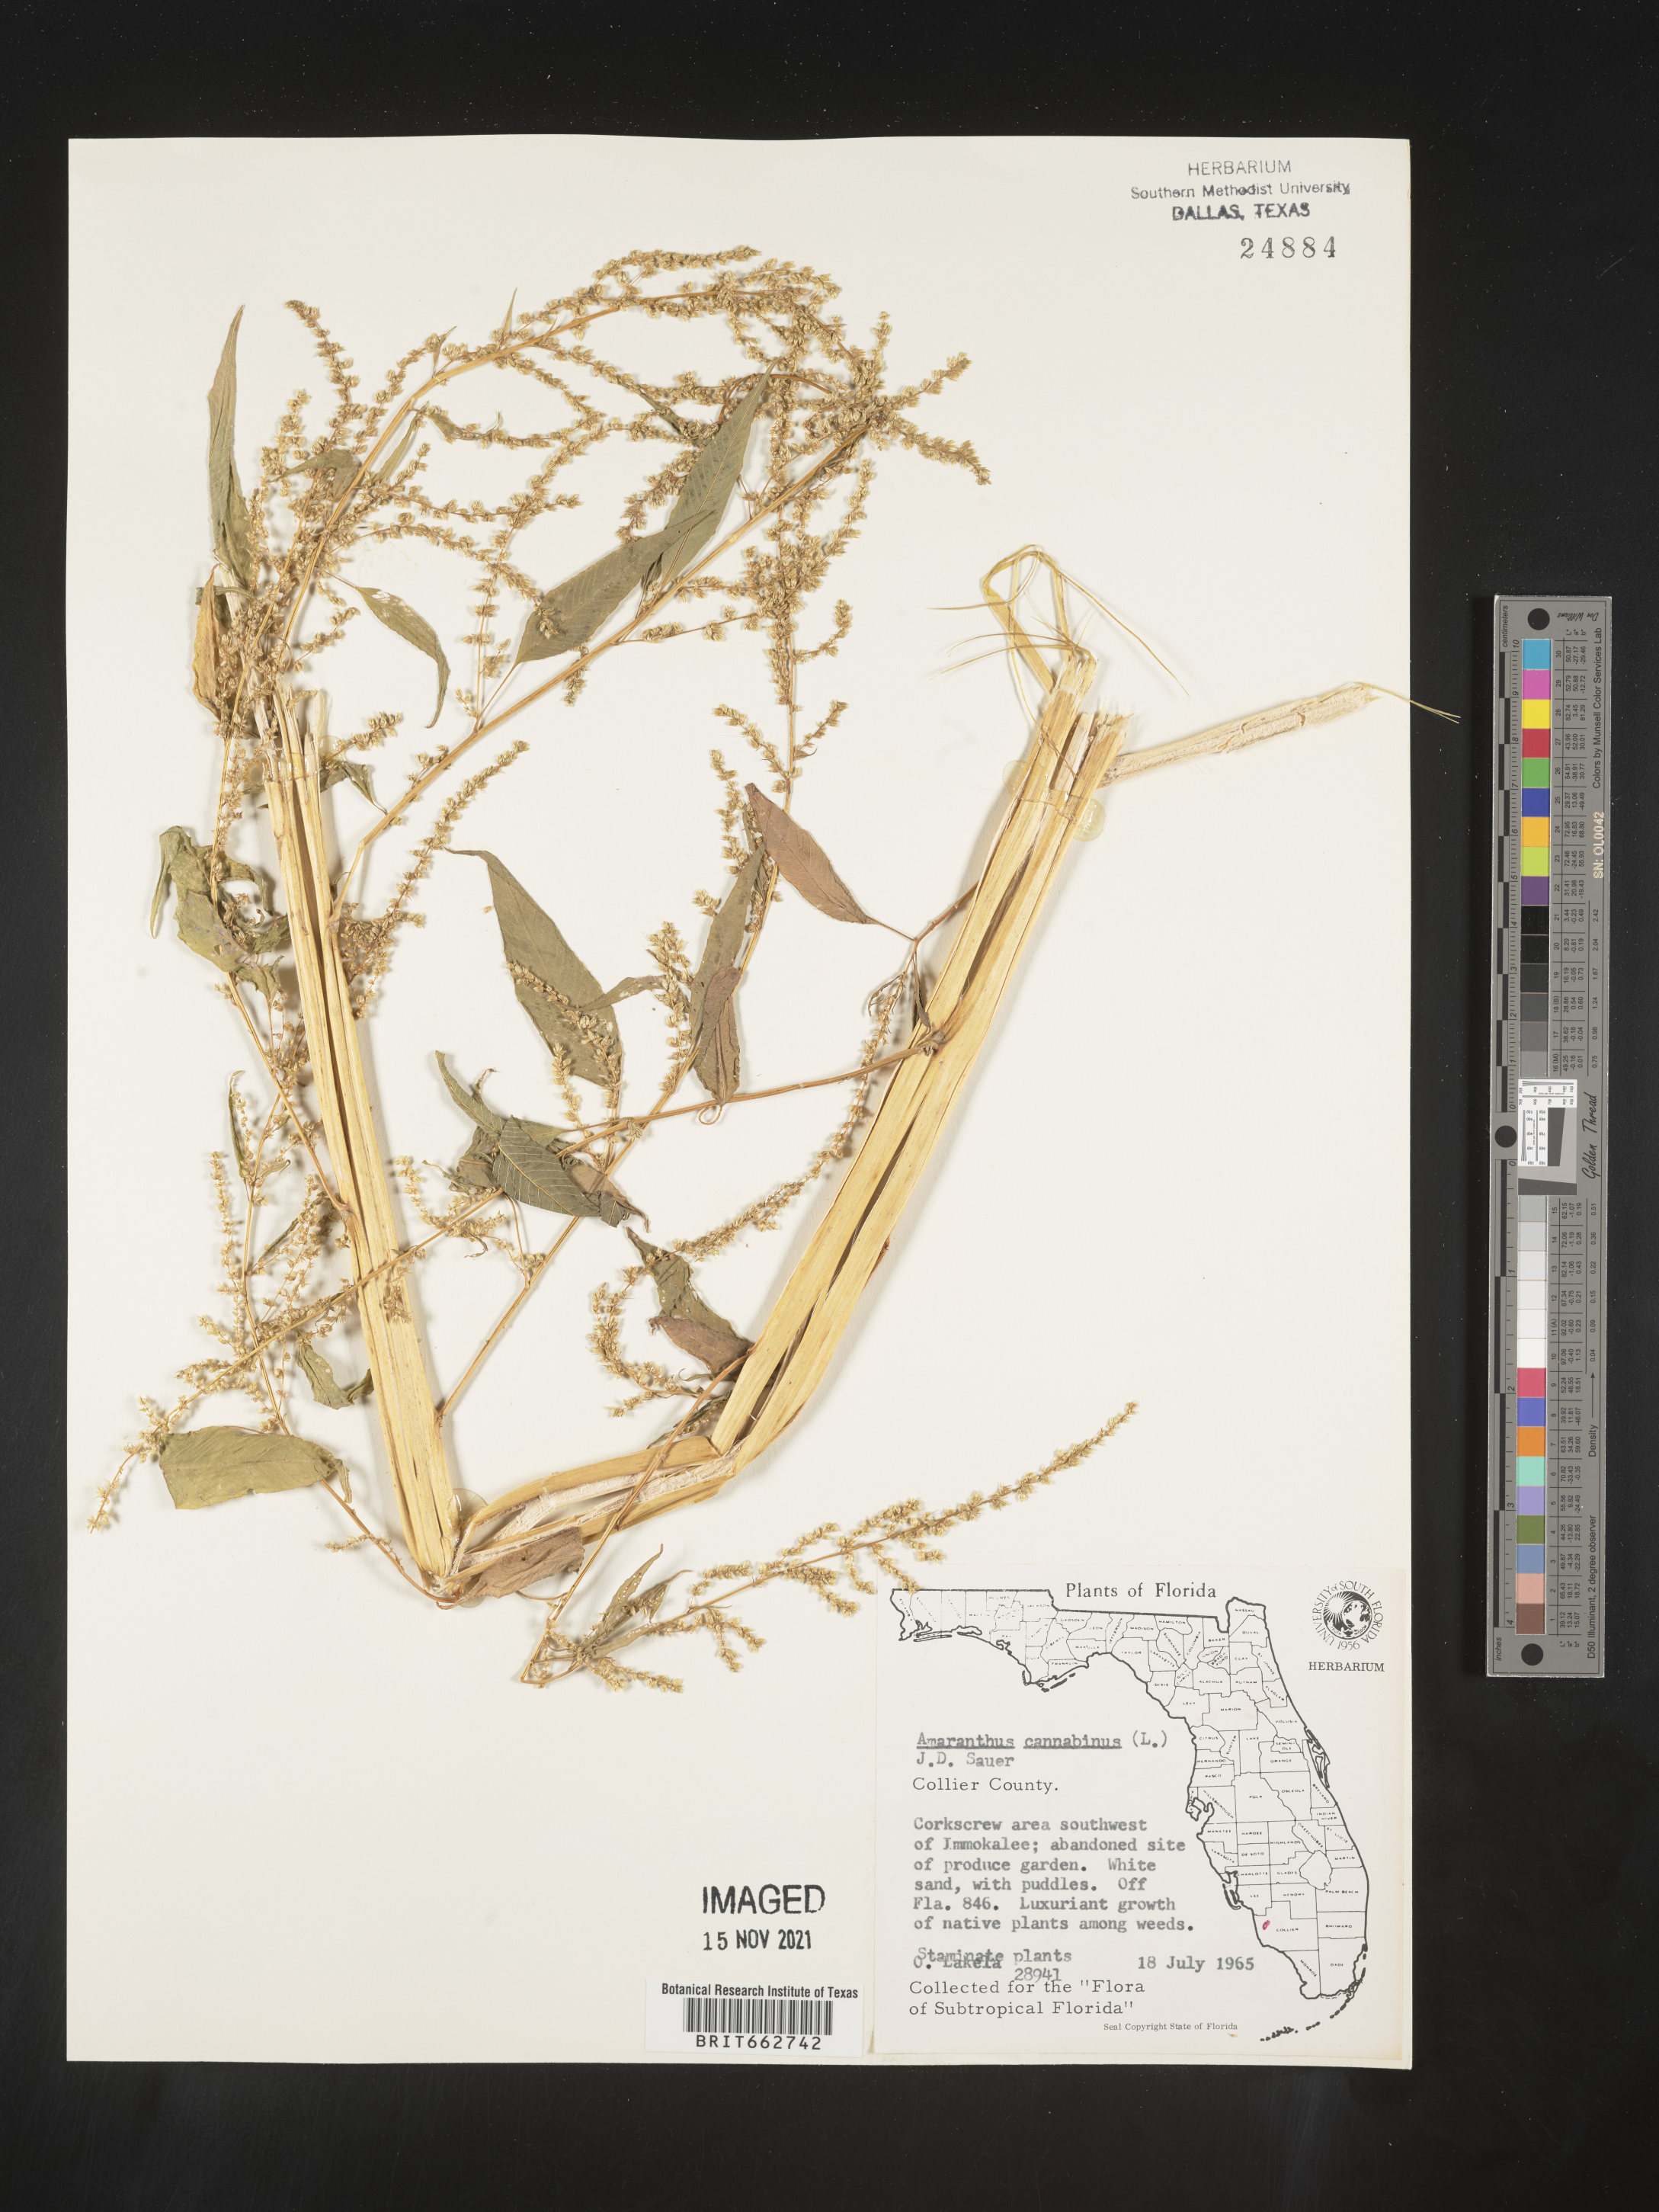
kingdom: Plantae
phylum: Tracheophyta
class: Magnoliopsida
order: Caryophyllales
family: Amaranthaceae
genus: Amaranthus
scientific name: Amaranthus powellii
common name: Powell's amaranth
